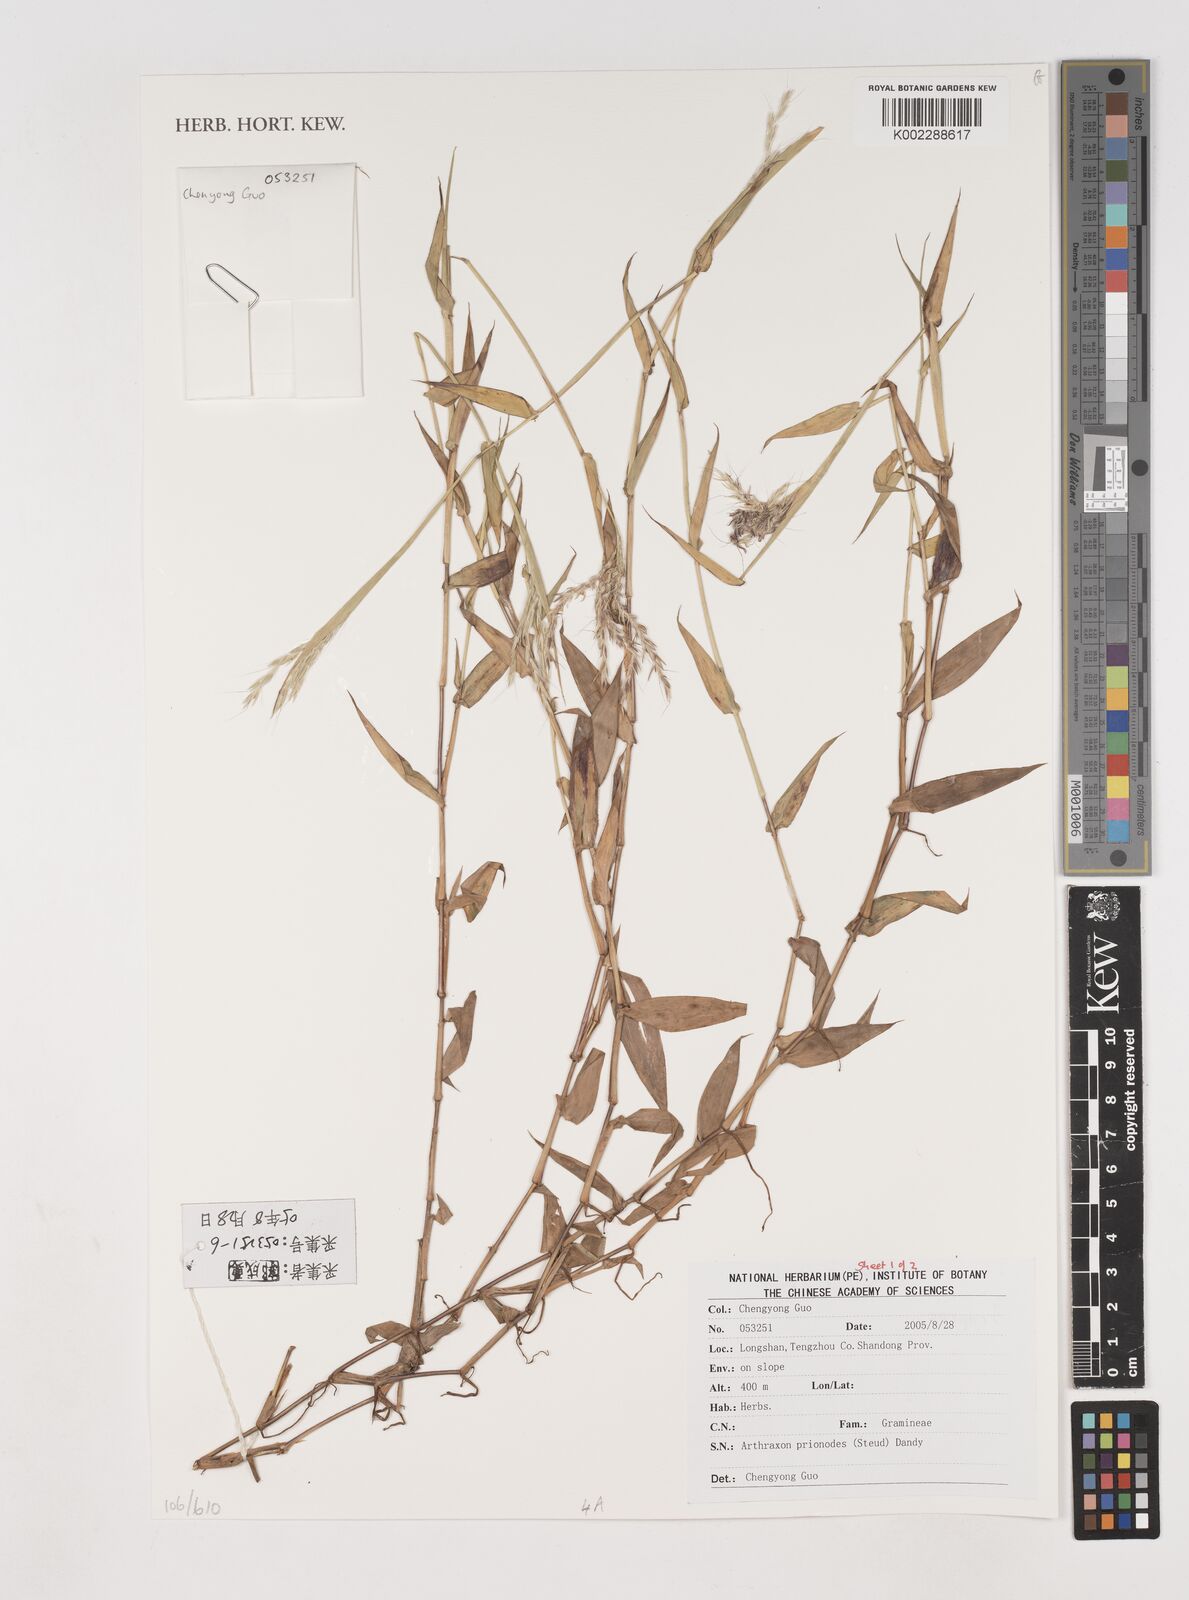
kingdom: Plantae
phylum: Tracheophyta
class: Liliopsida
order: Poales
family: Poaceae
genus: Arthraxon
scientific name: Arthraxon prionodes
